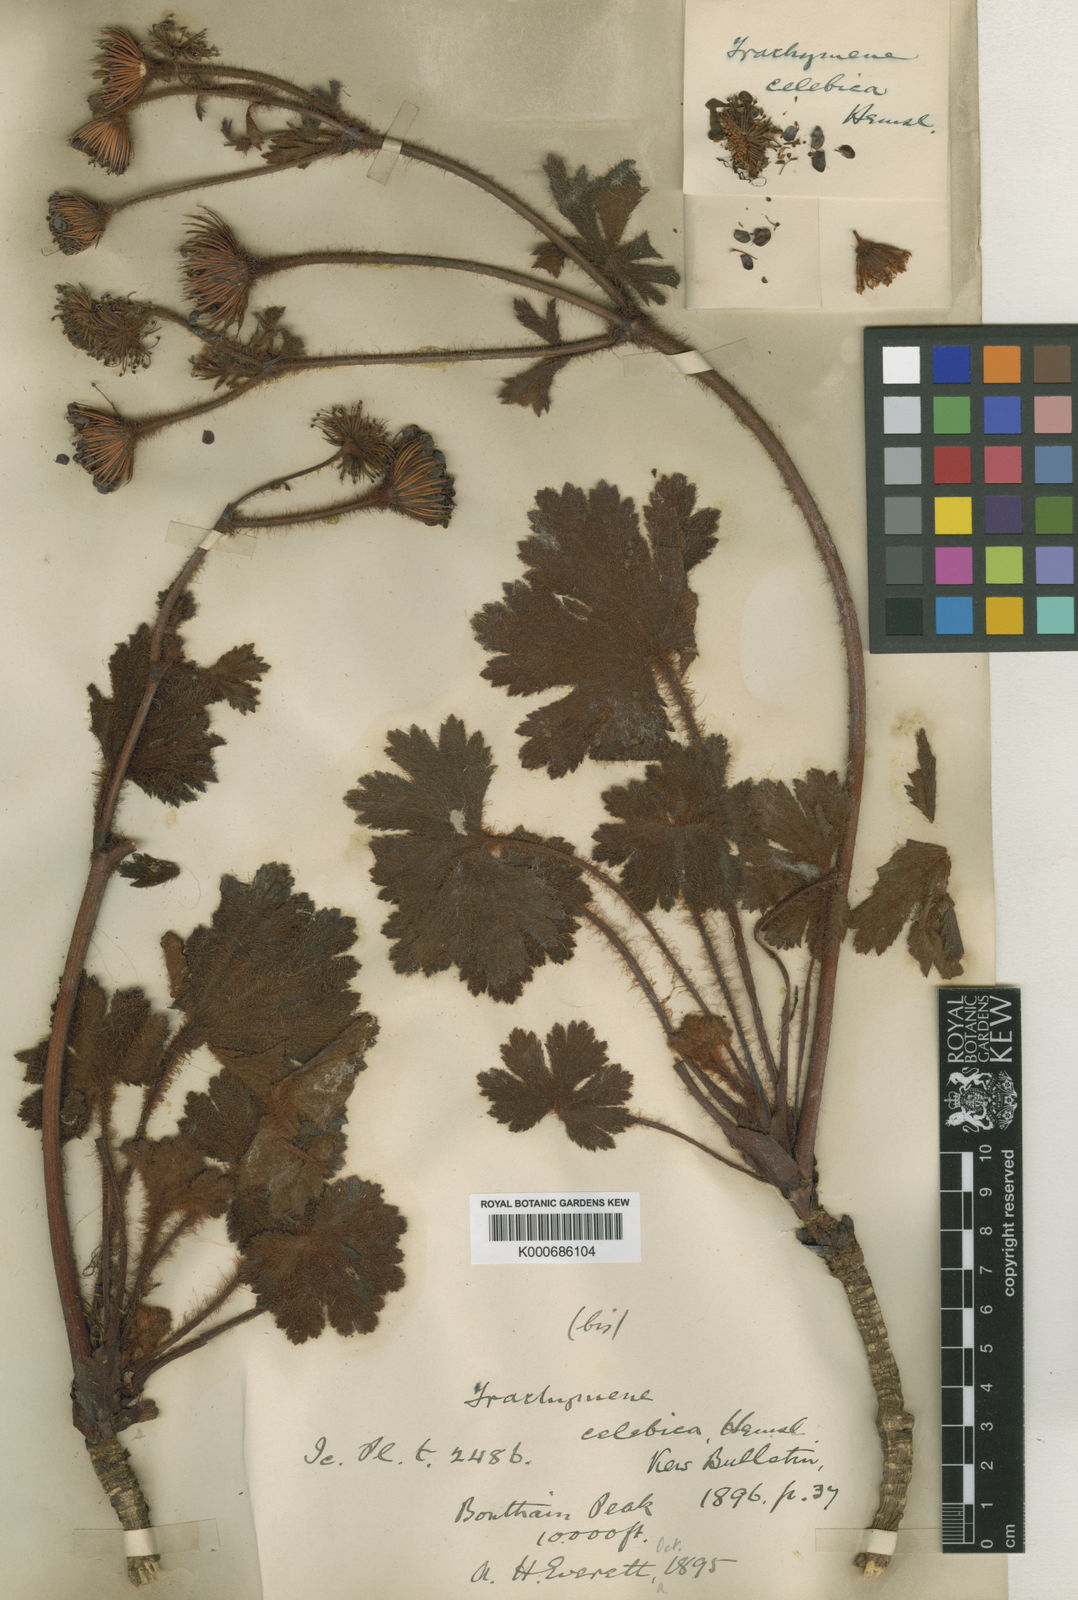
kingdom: Plantae
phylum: Tracheophyta
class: Magnoliopsida
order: Apiales
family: Araliaceae
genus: Trachymene
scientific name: Trachymene celebica
